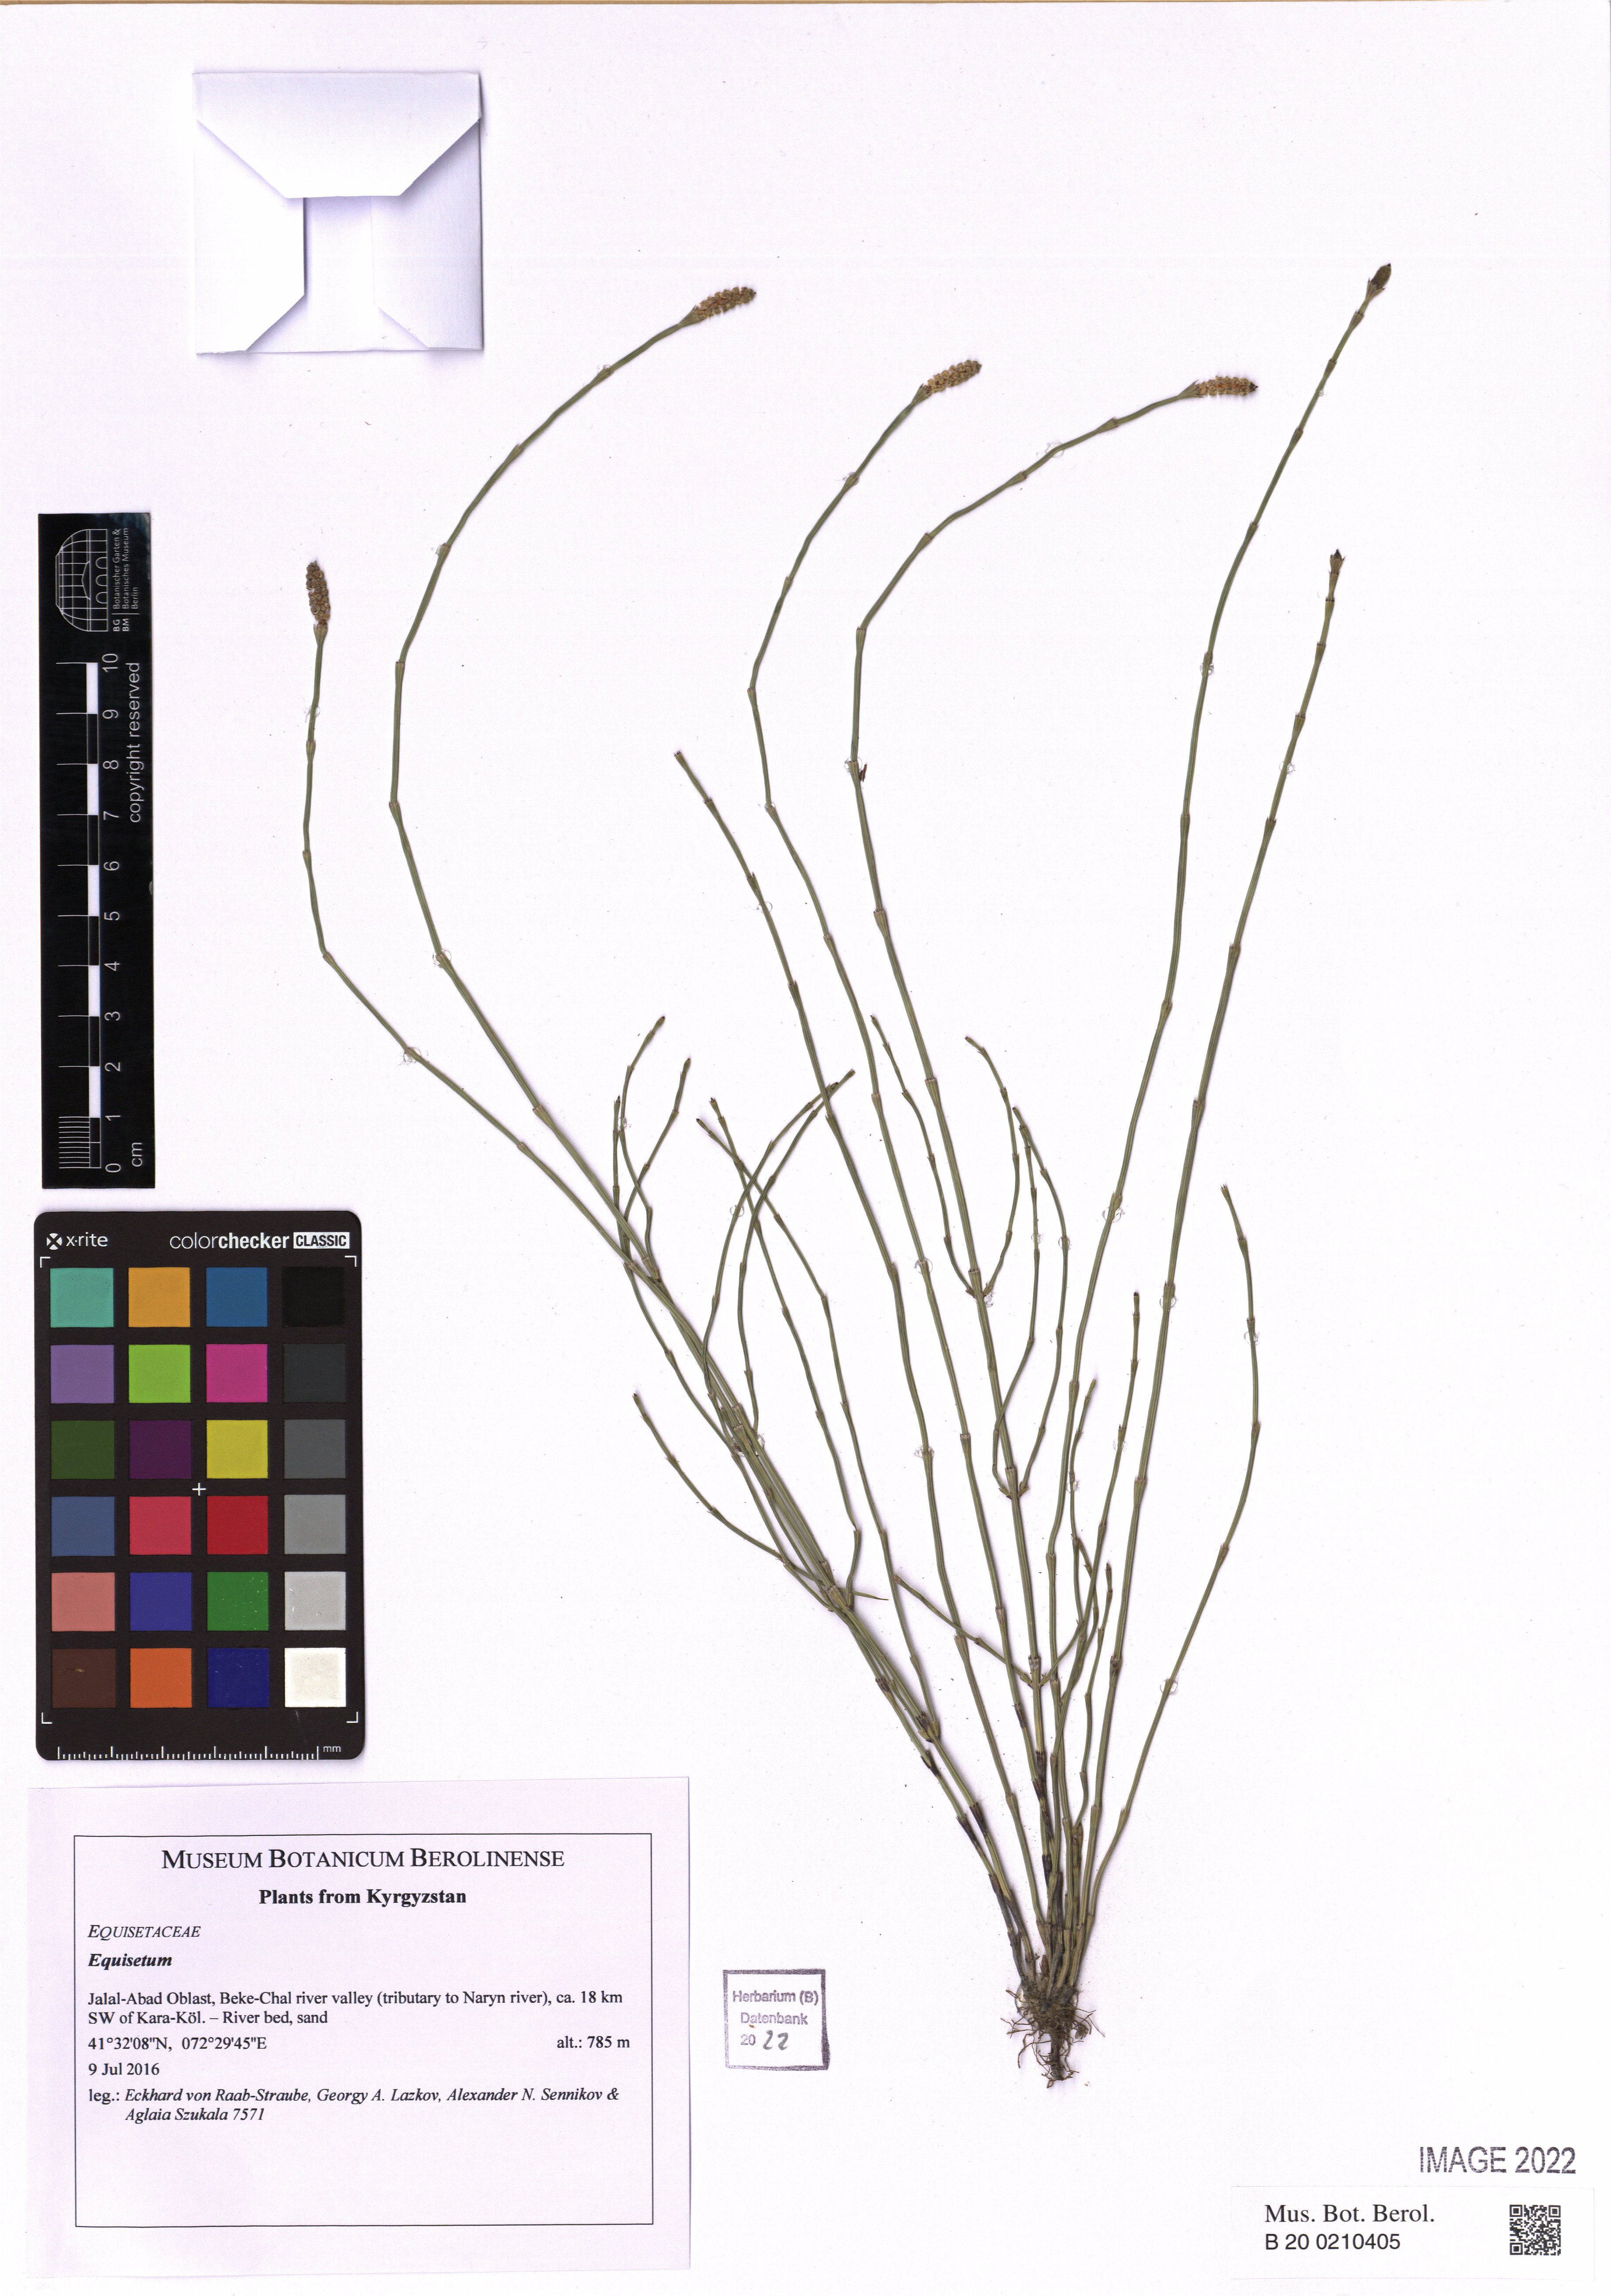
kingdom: Plantae
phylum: Tracheophyta
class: Polypodiopsida
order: Equisetales
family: Equisetaceae
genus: Equisetum
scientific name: Equisetum
